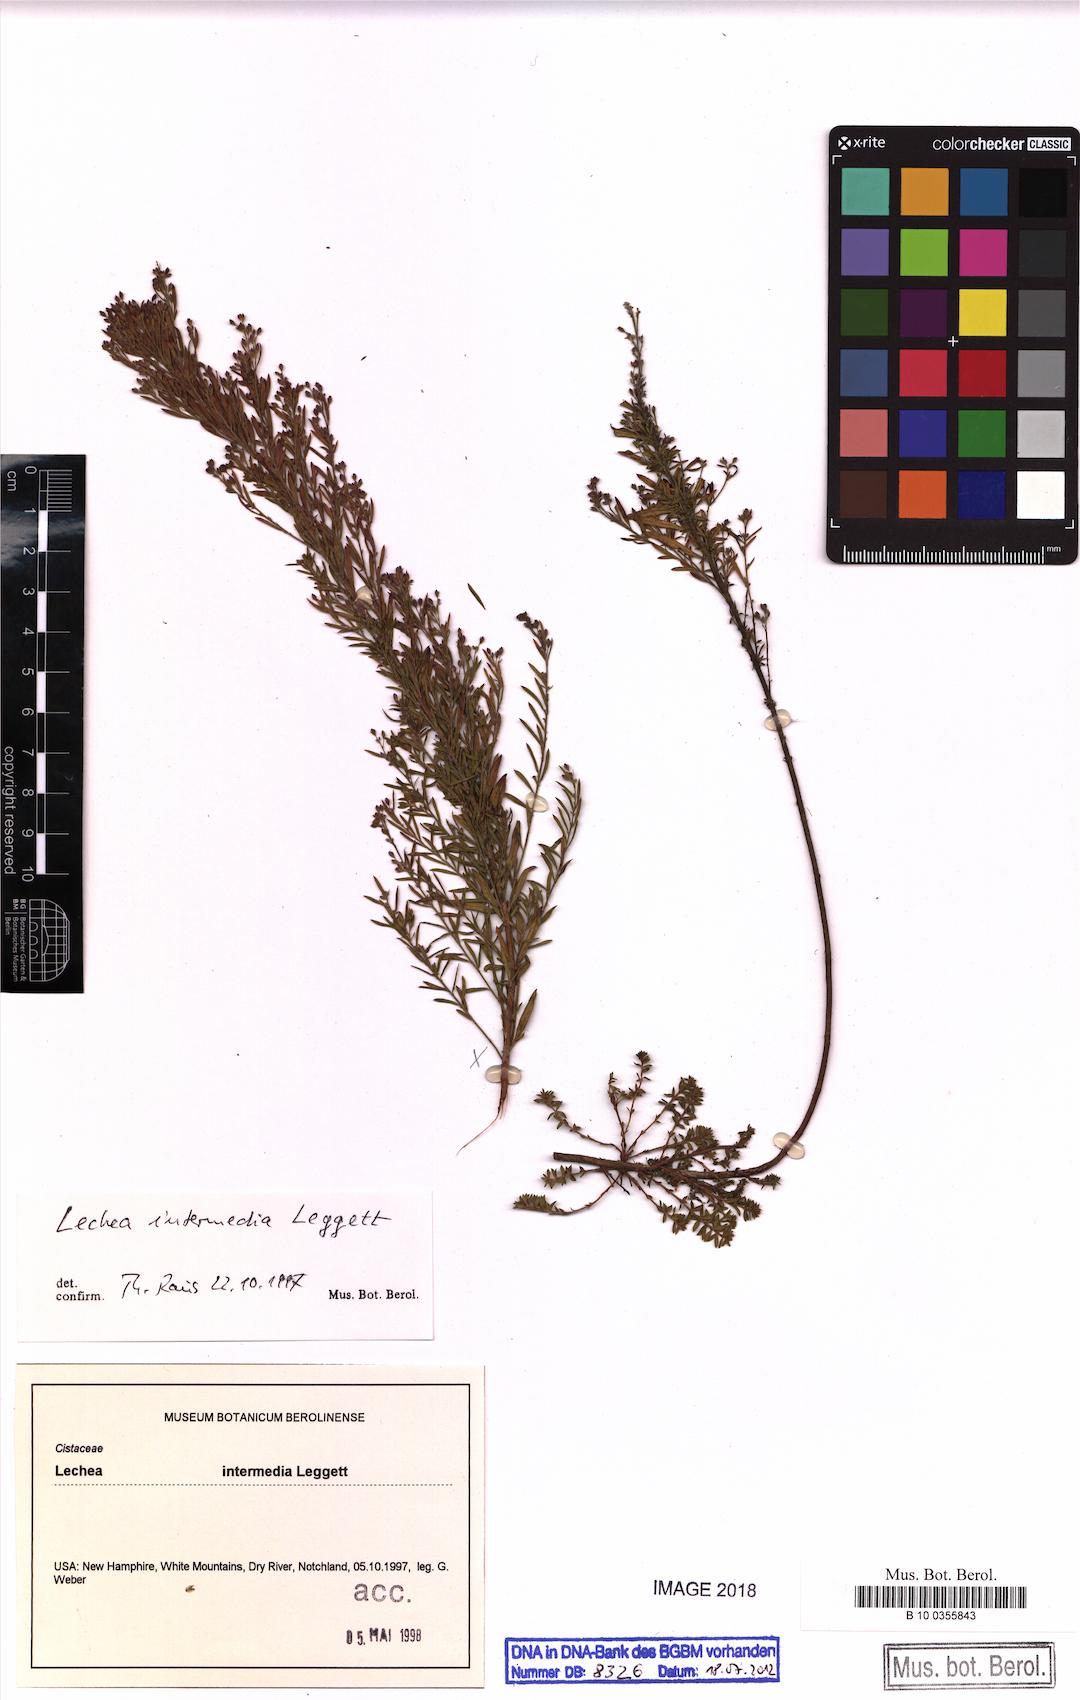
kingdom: Plantae
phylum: Tracheophyta
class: Magnoliopsida
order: Malvales
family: Cistaceae
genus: Lechea
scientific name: Lechea intermedia
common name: Intermediate pinweed
